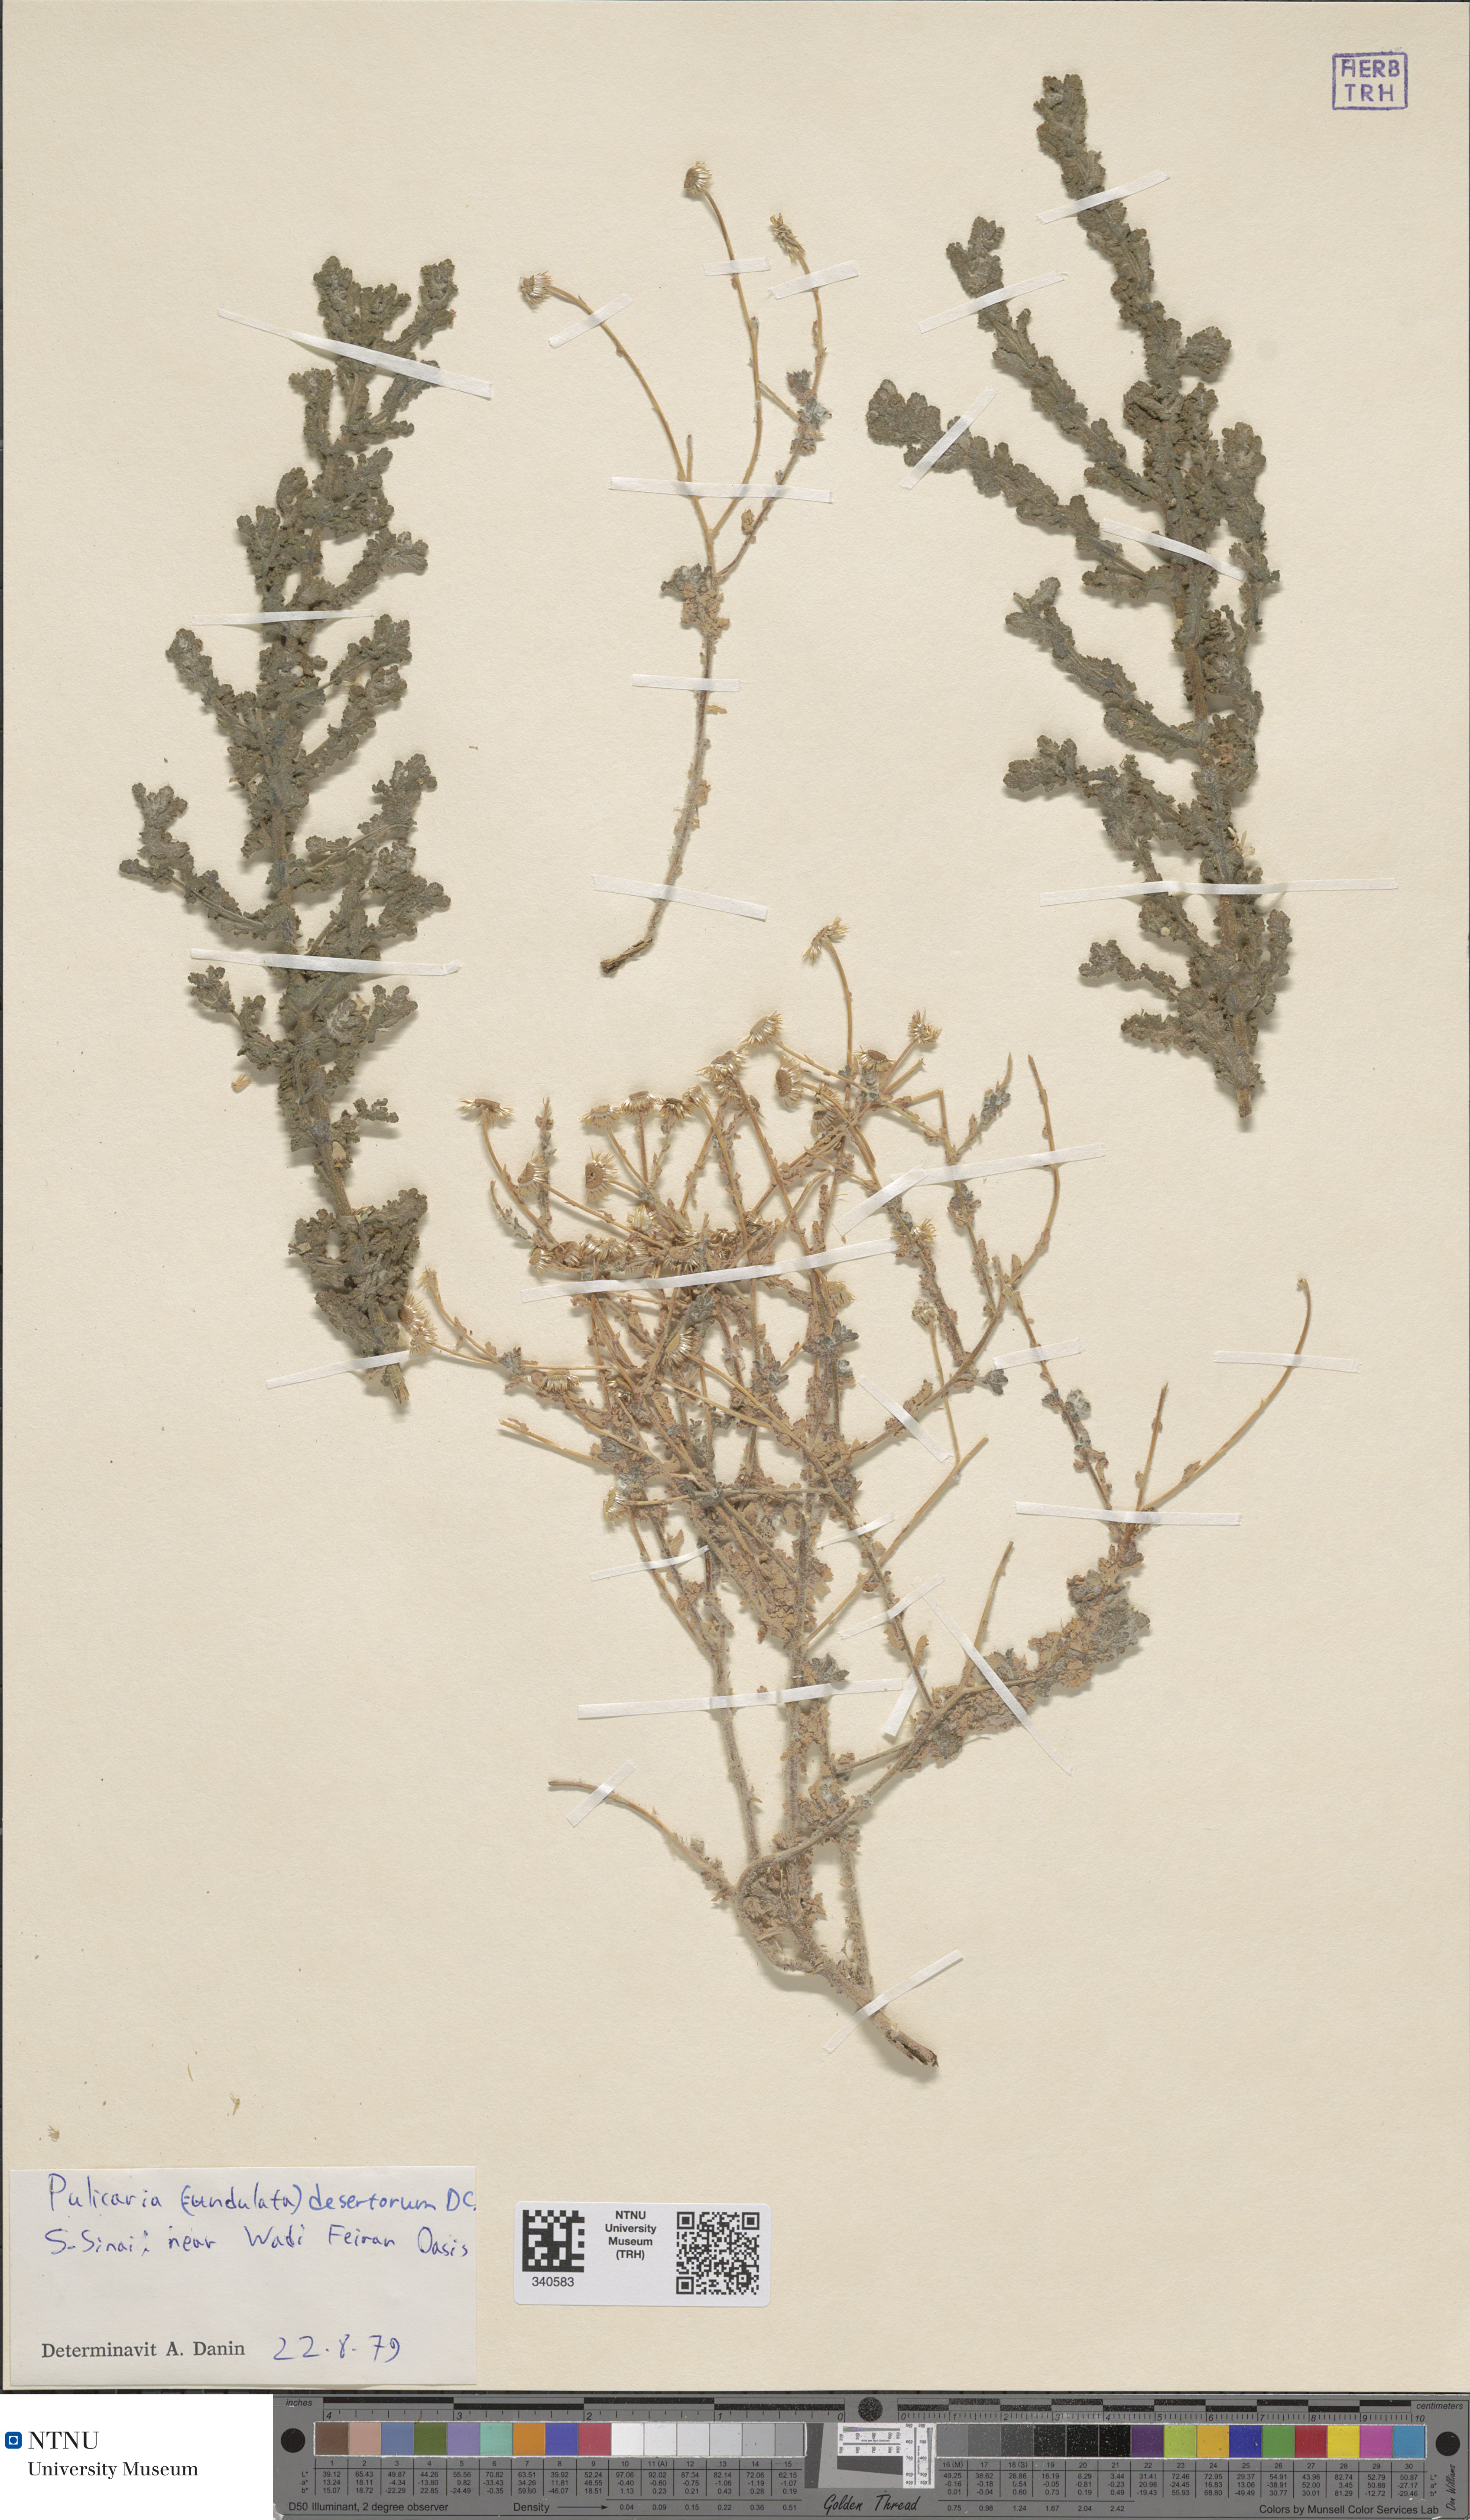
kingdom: Plantae
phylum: Tracheophyta
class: Magnoliopsida
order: Asterales
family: Asteraceae
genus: Pulicaria
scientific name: Pulicaria incisa
